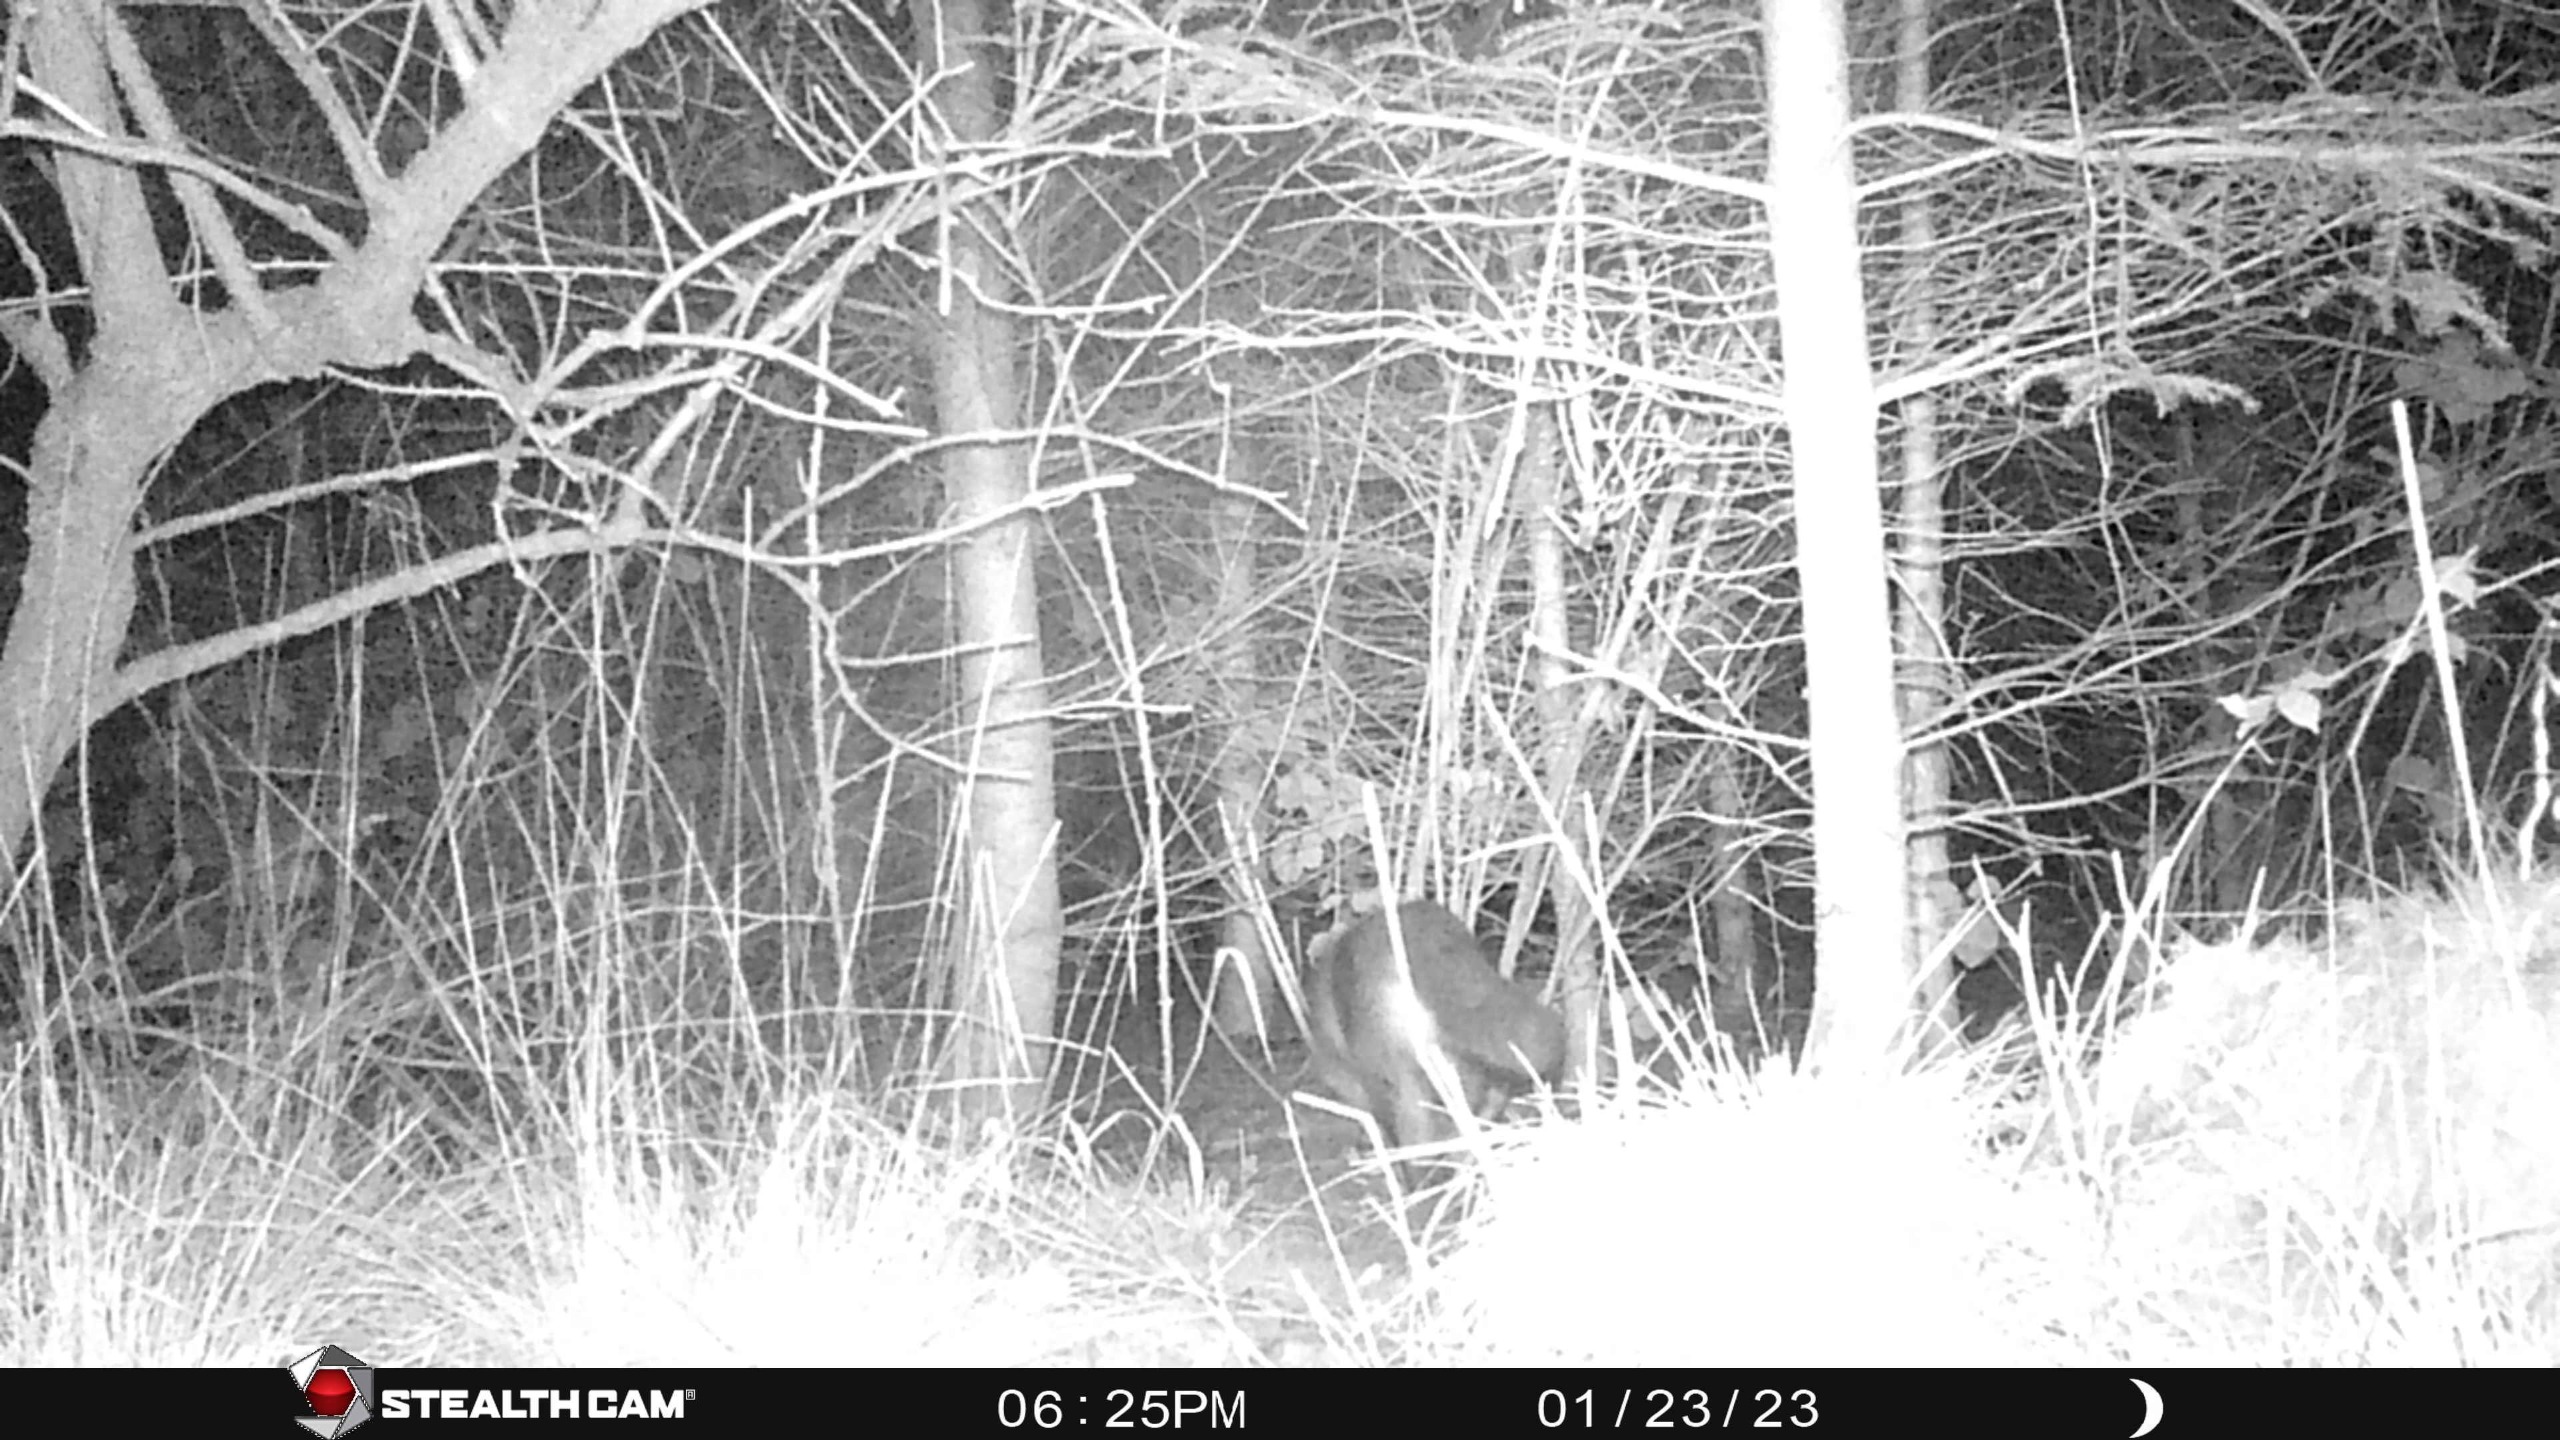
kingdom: Animalia
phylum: Chordata
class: Mammalia
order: Carnivora
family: Canidae
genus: Vulpes
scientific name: Vulpes vulpes
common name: Ræv
